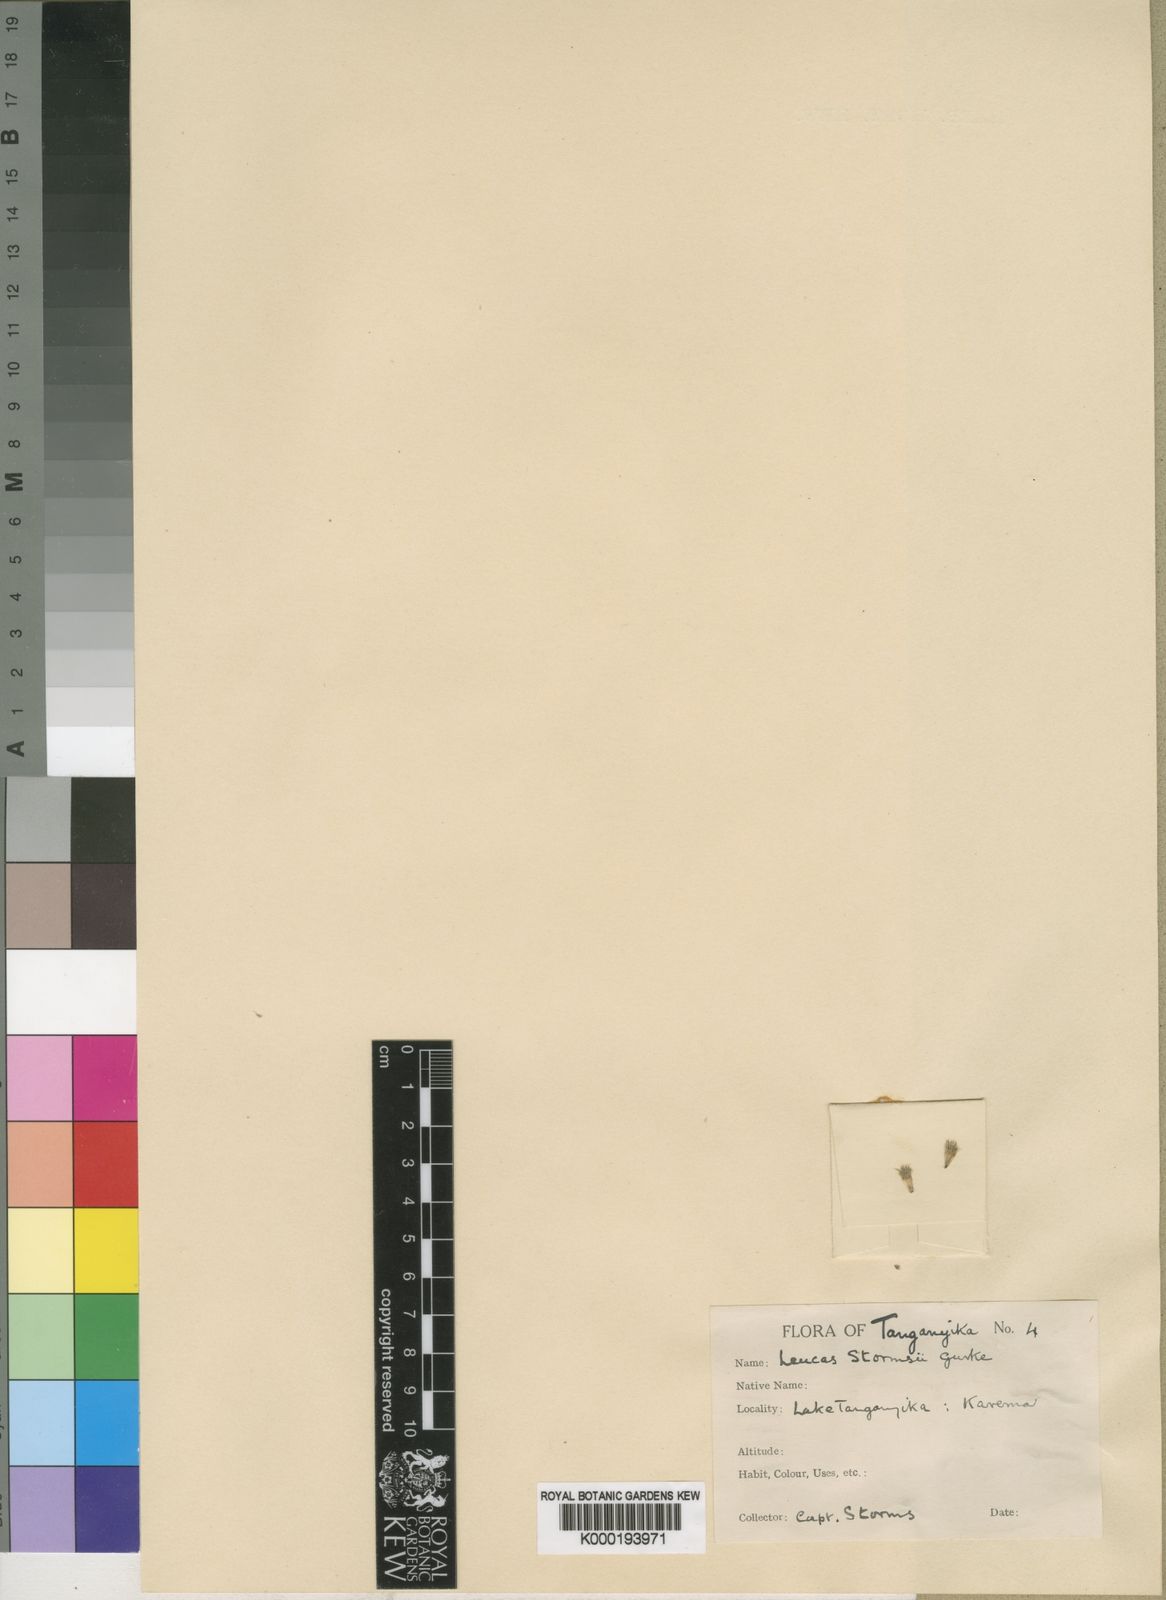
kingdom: Plantae
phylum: Tracheophyta
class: Magnoliopsida
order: Lamiales
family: Lamiaceae
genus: Leucas
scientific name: Leucas
